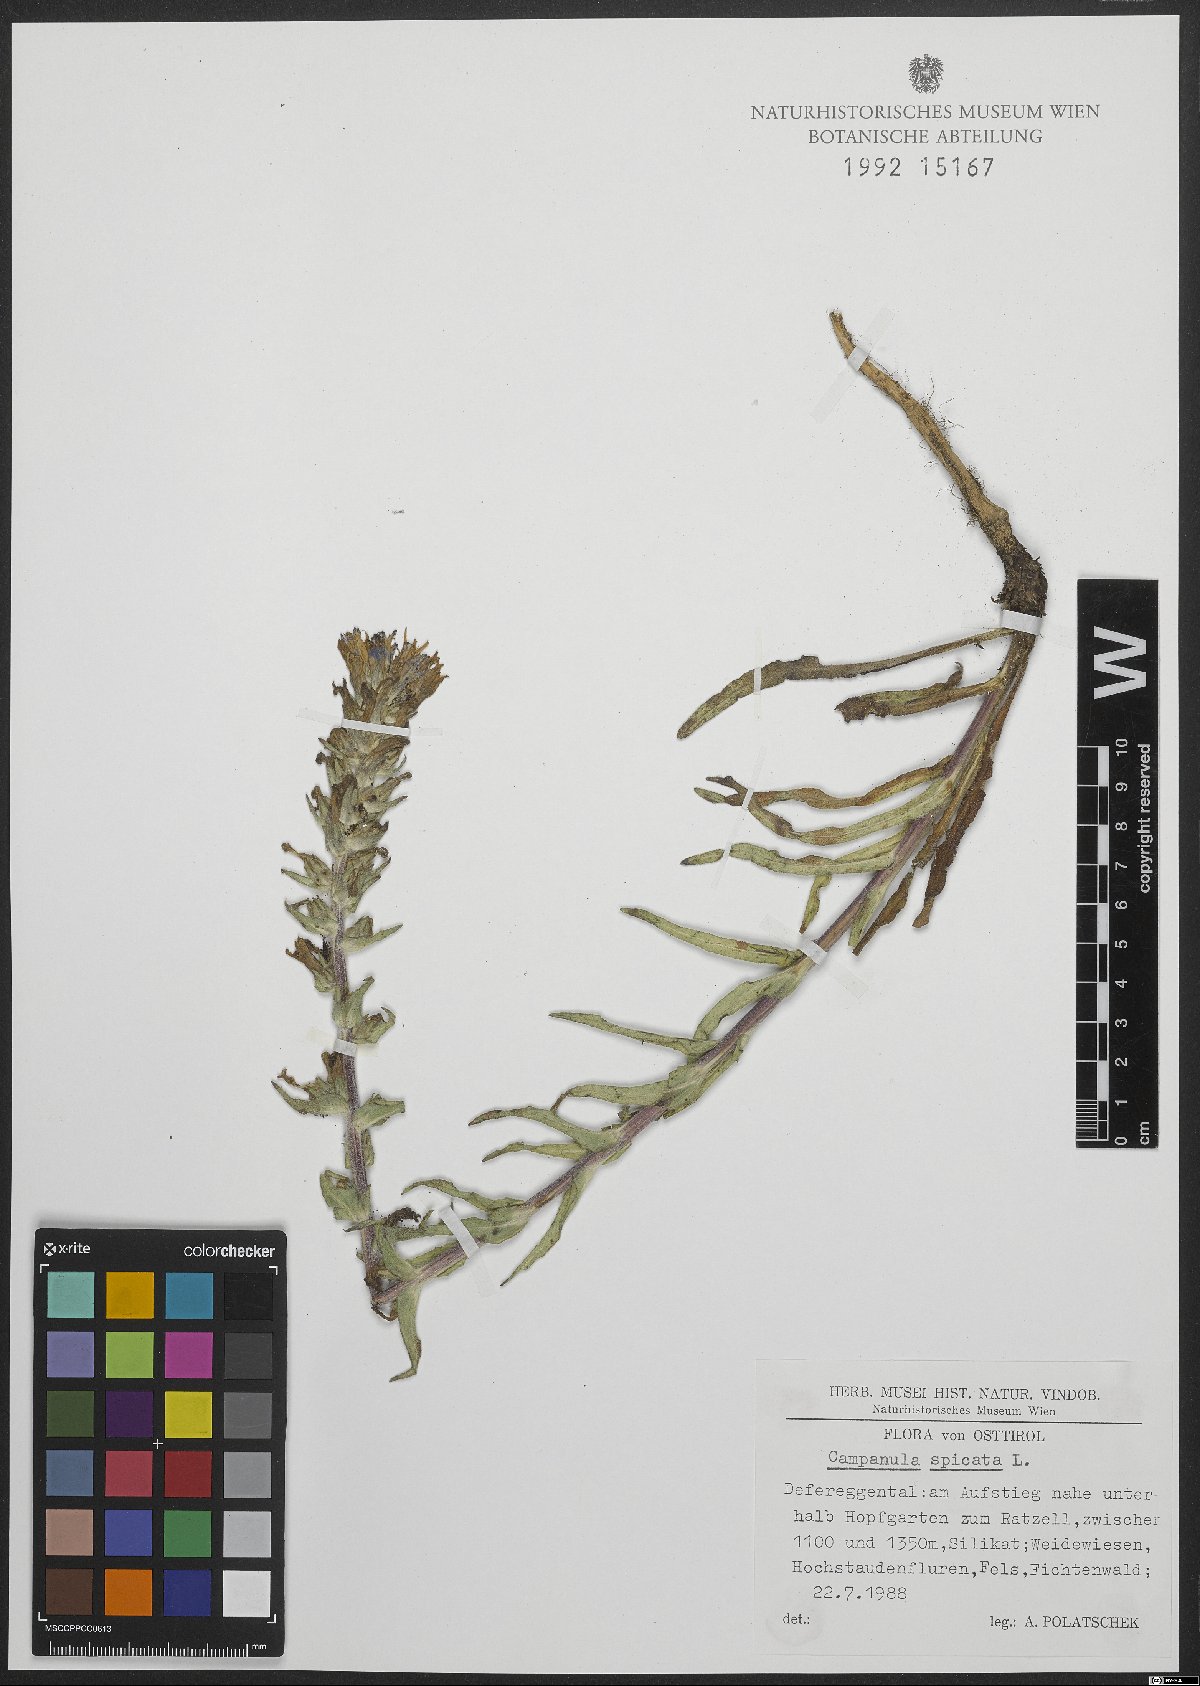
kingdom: Plantae
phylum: Tracheophyta
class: Magnoliopsida
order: Asterales
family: Campanulaceae
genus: Campanula
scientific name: Campanula spicata
